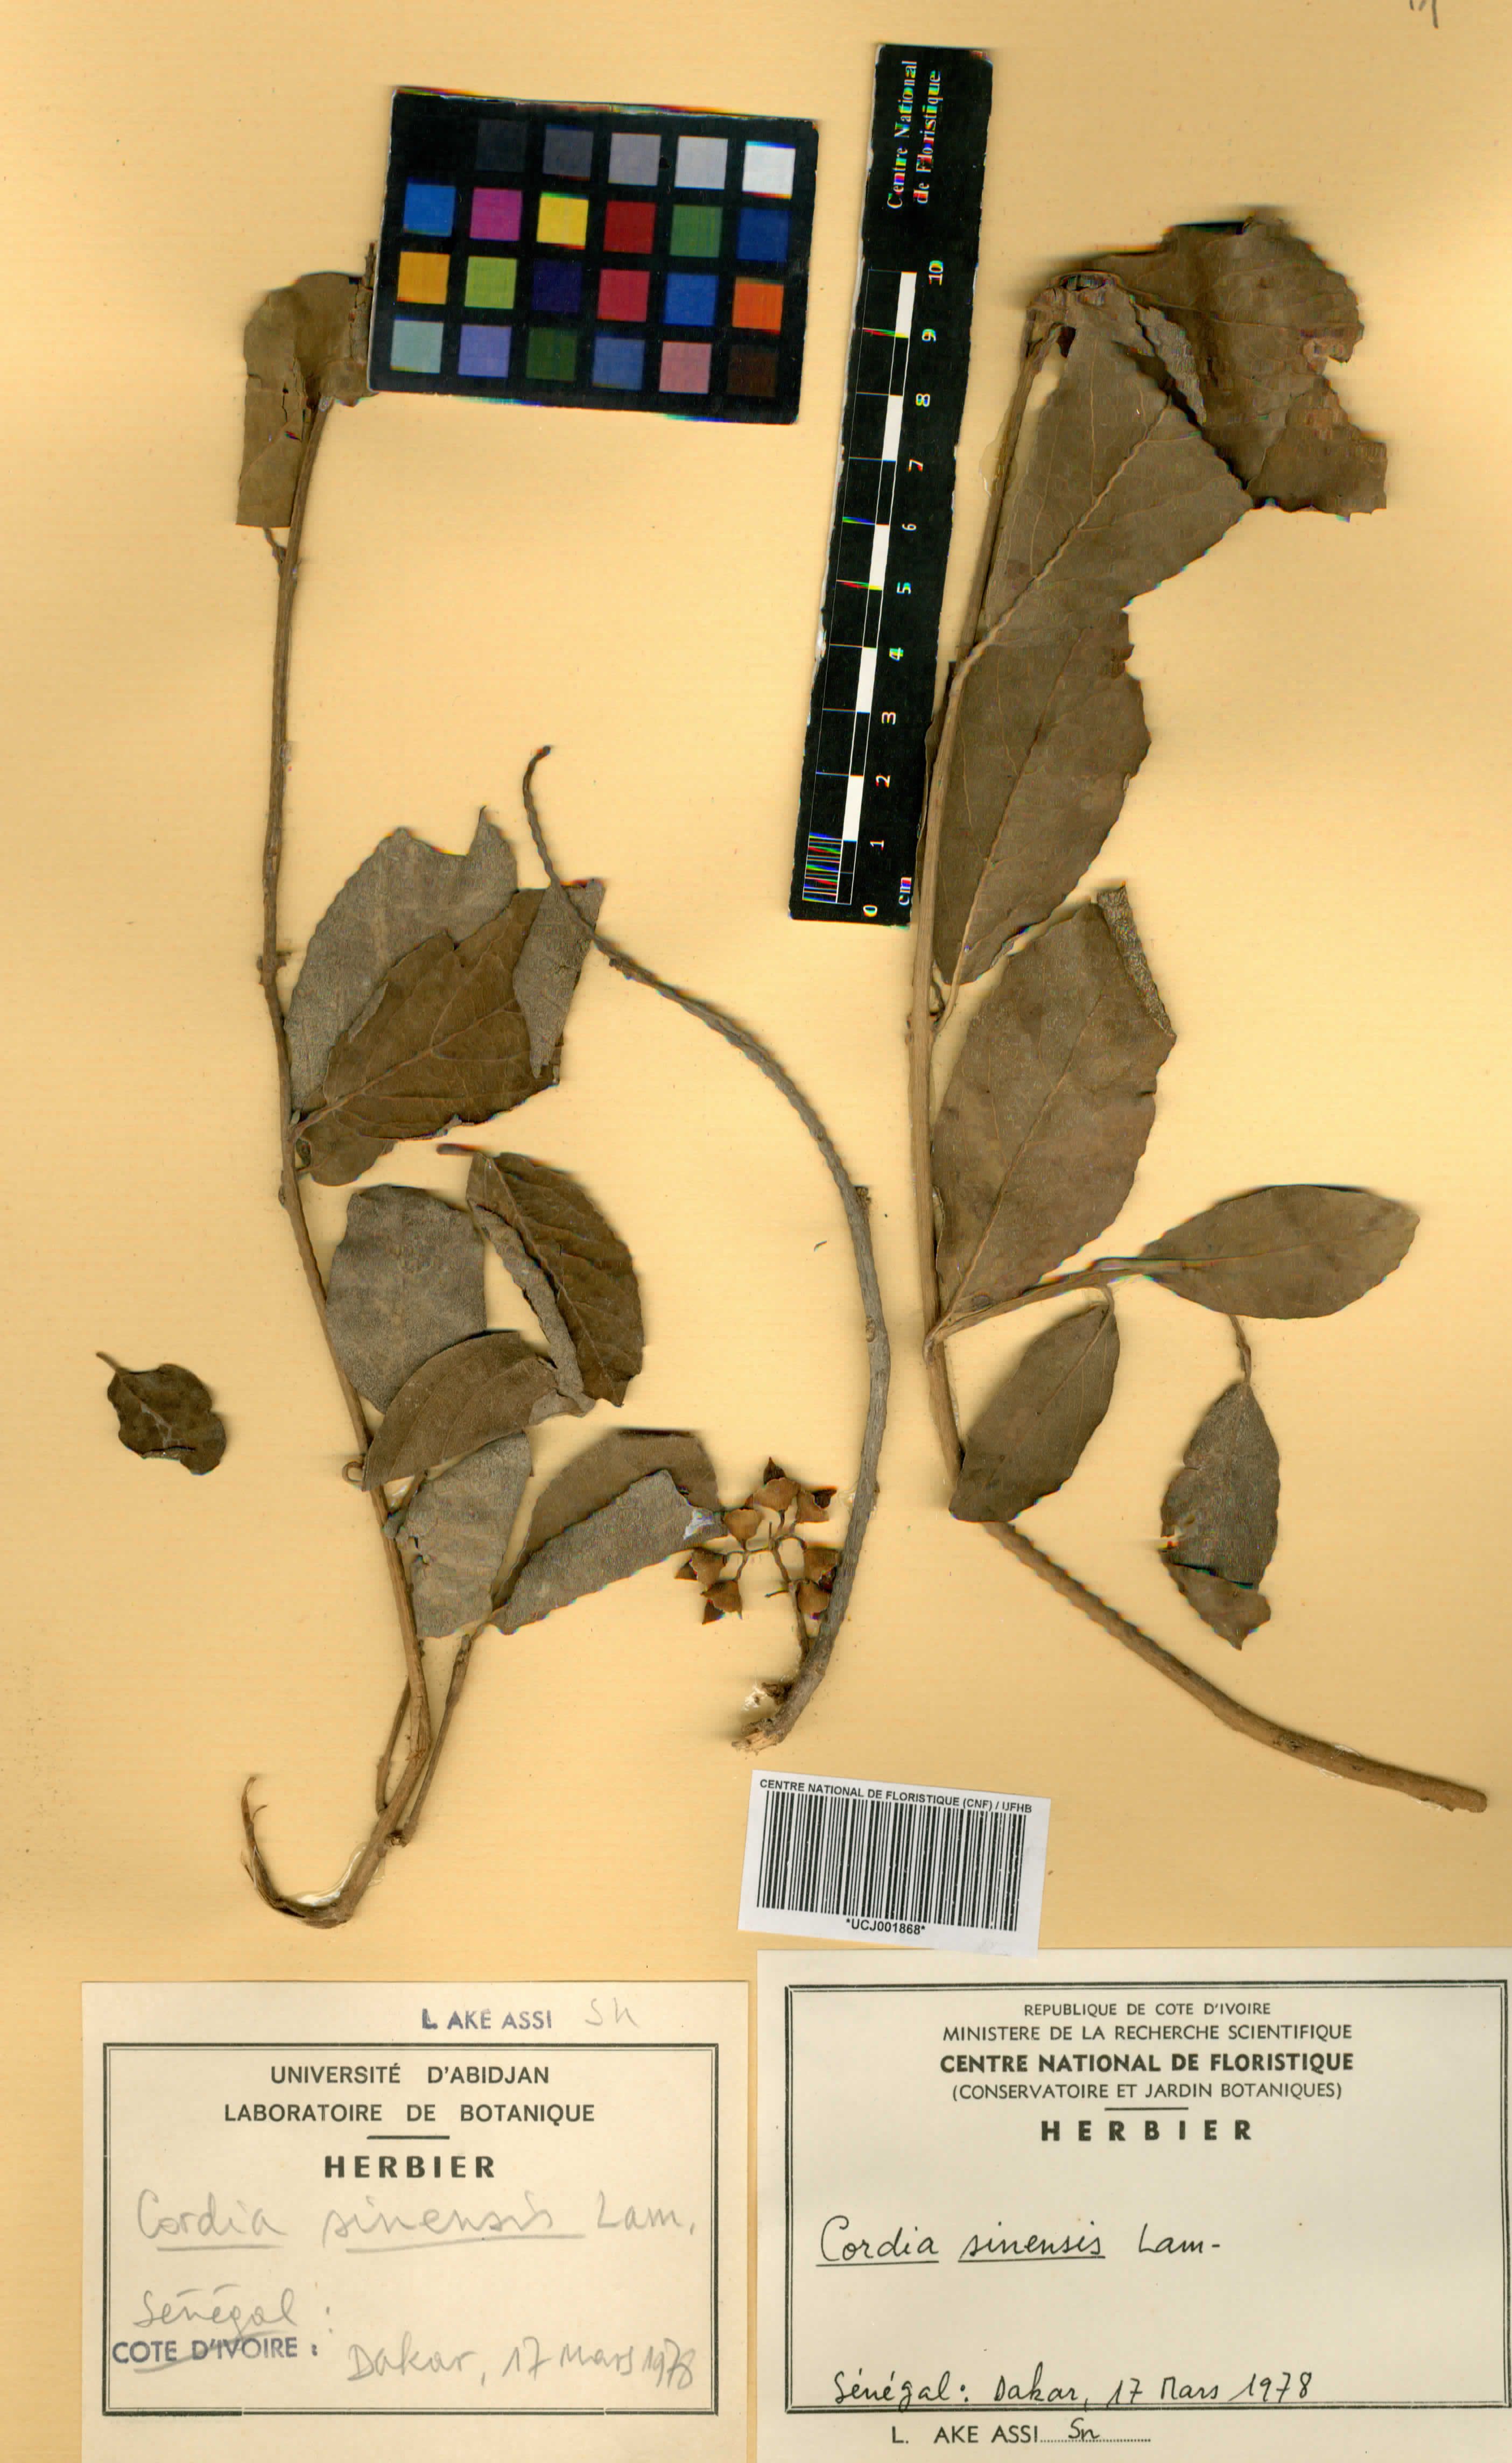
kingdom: Plantae
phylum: Tracheophyta
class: Magnoliopsida
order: Boraginales
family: Cordiaceae
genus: Cordia
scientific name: Cordia sinensis
